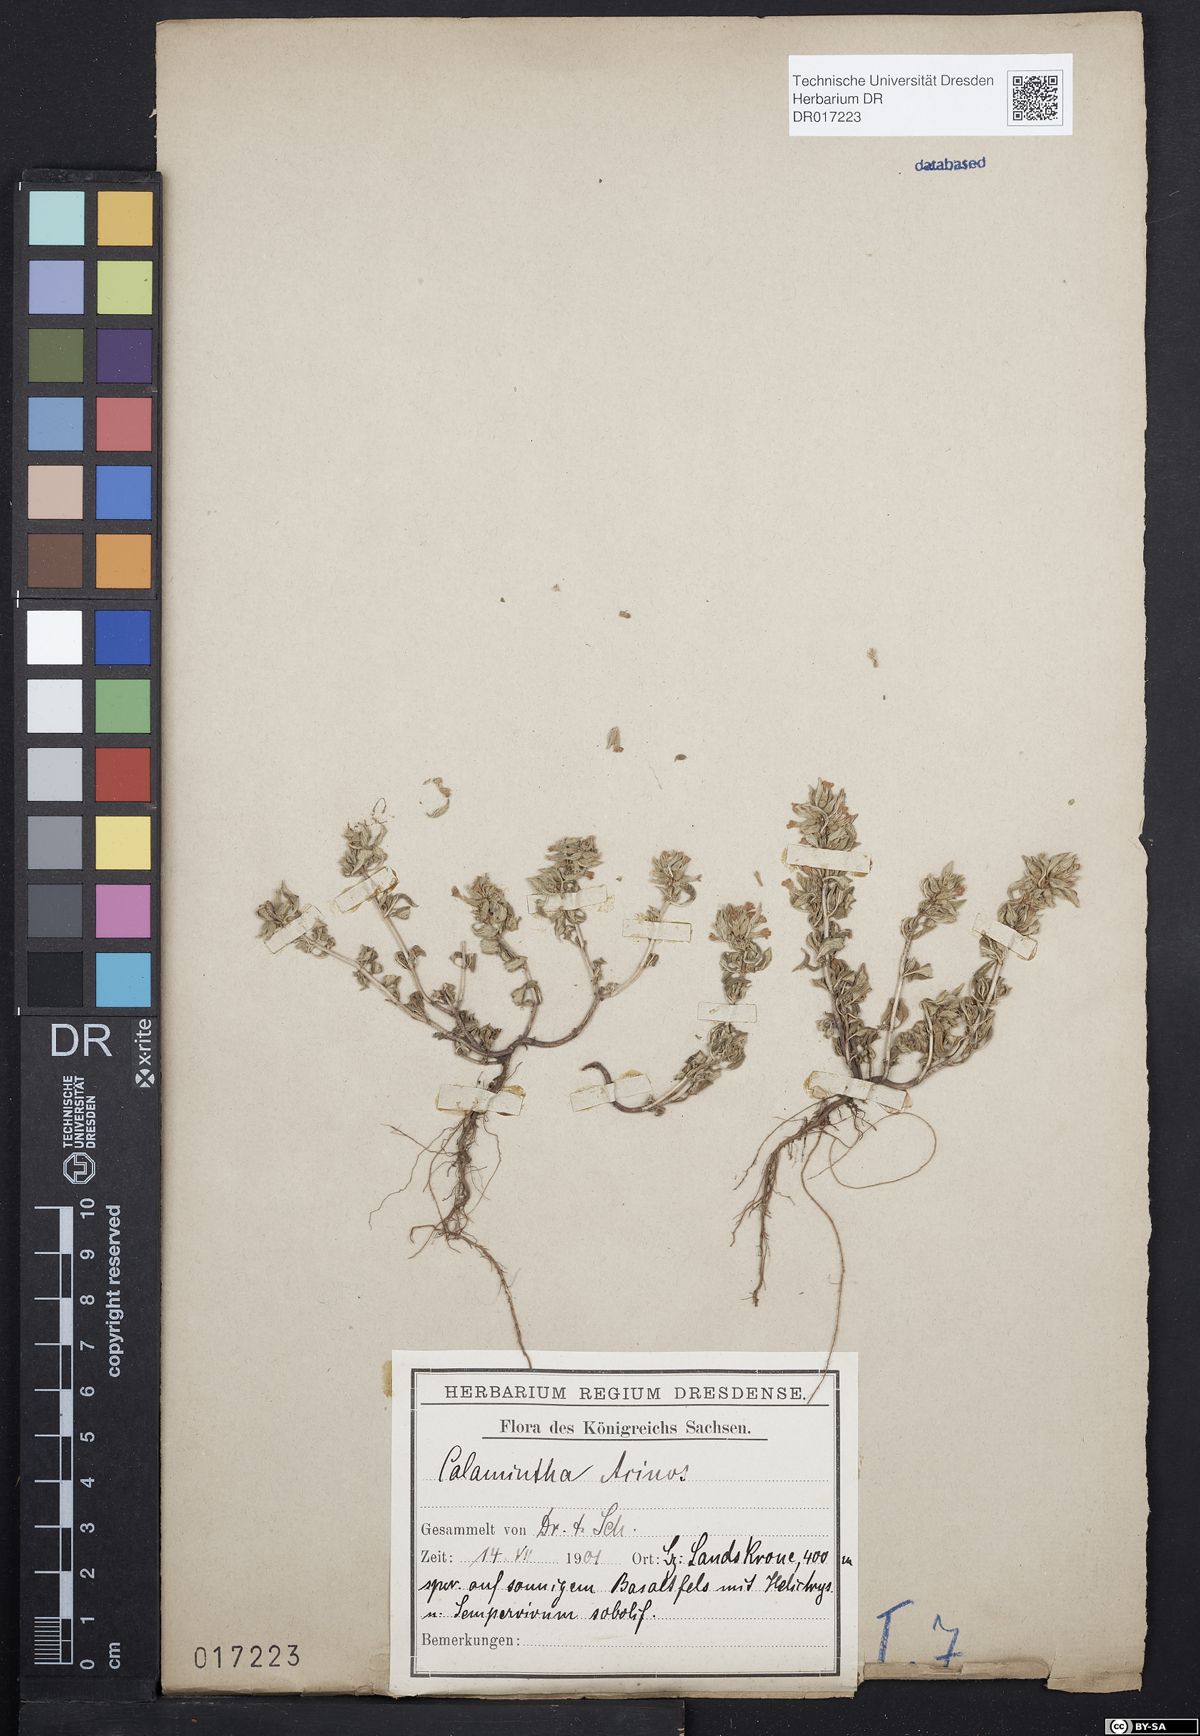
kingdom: Plantae
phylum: Tracheophyta
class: Magnoliopsida
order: Lamiales
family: Lamiaceae
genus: Clinopodium
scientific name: Clinopodium acinos
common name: Basil thyme
